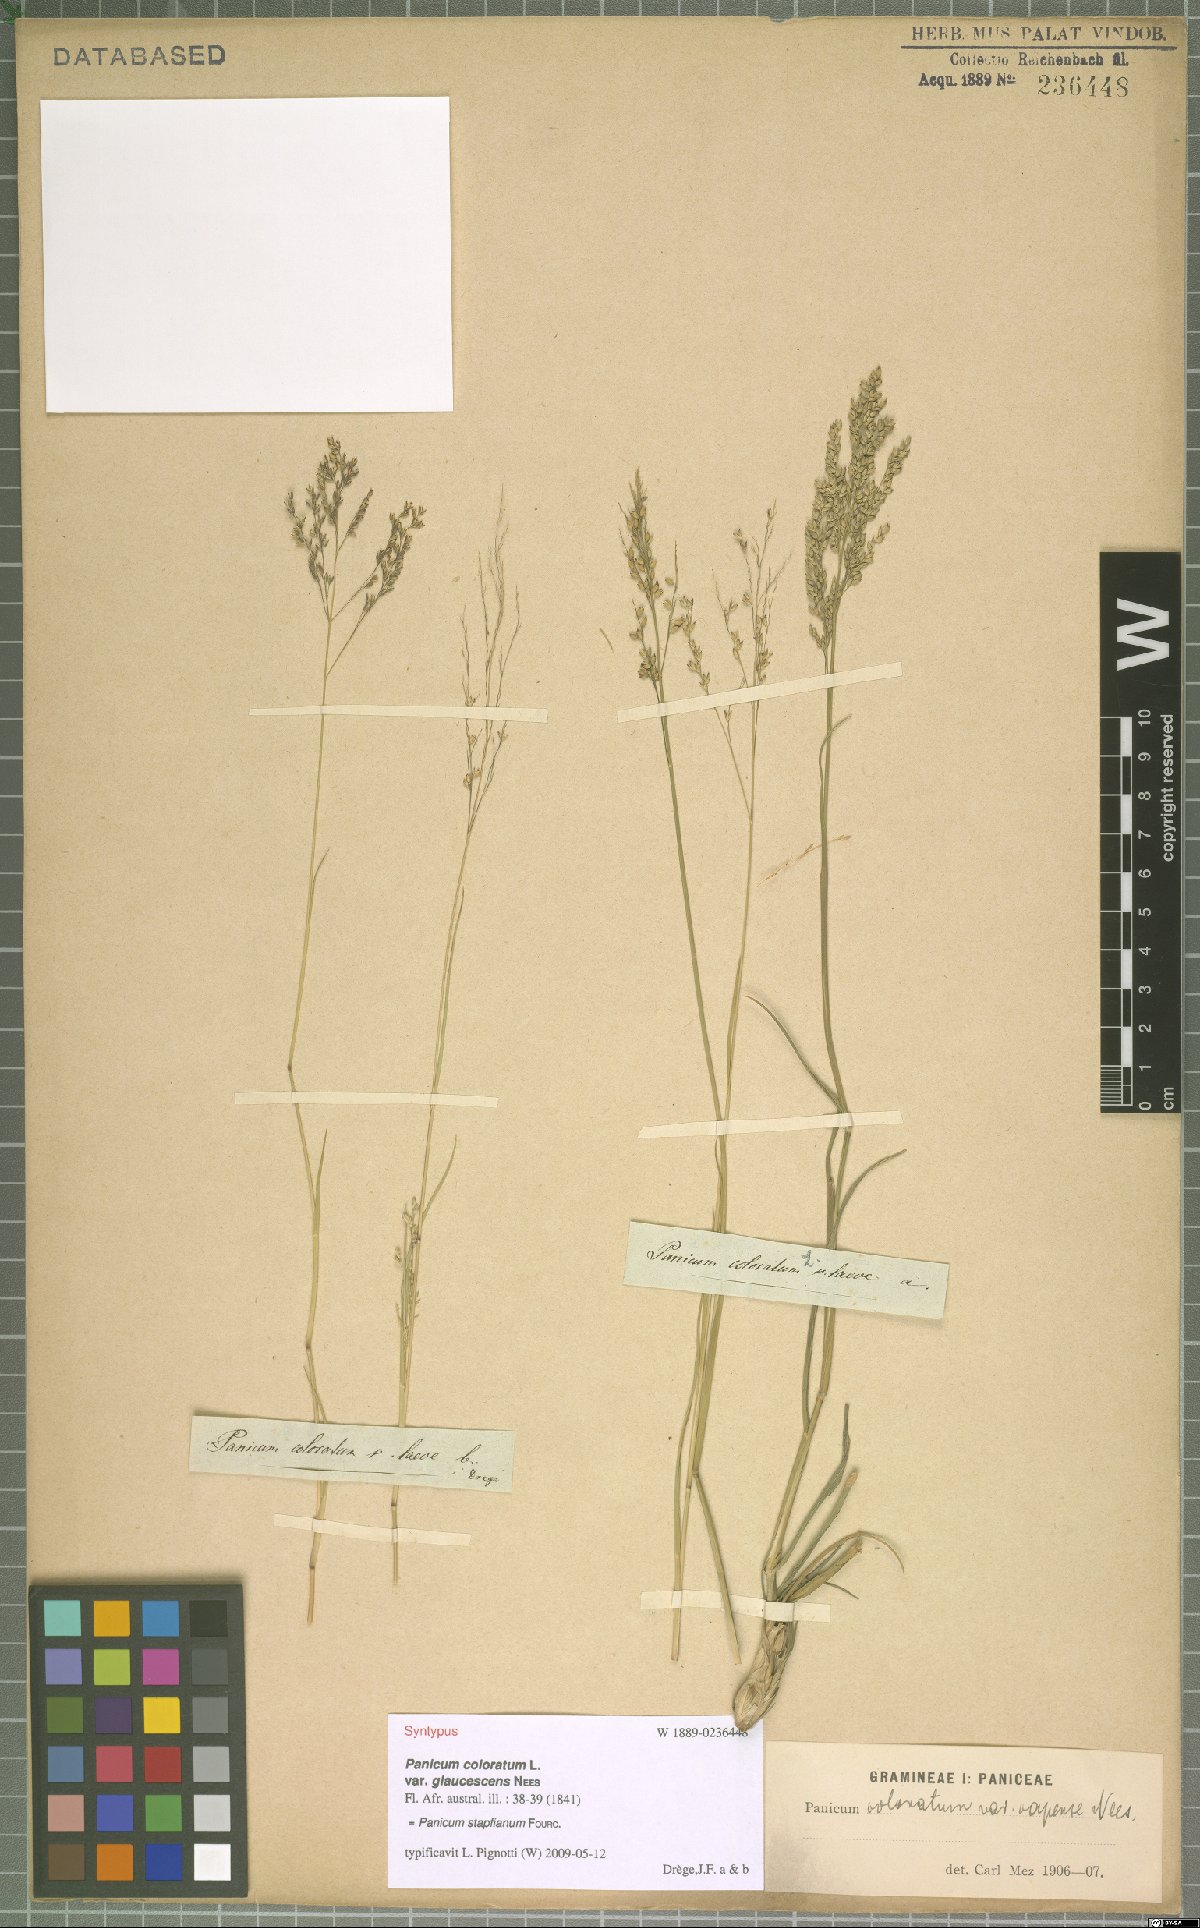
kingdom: Plantae
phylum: Tracheophyta
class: Liliopsida
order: Poales
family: Poaceae
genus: Panicum
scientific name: Panicum stapfianum
